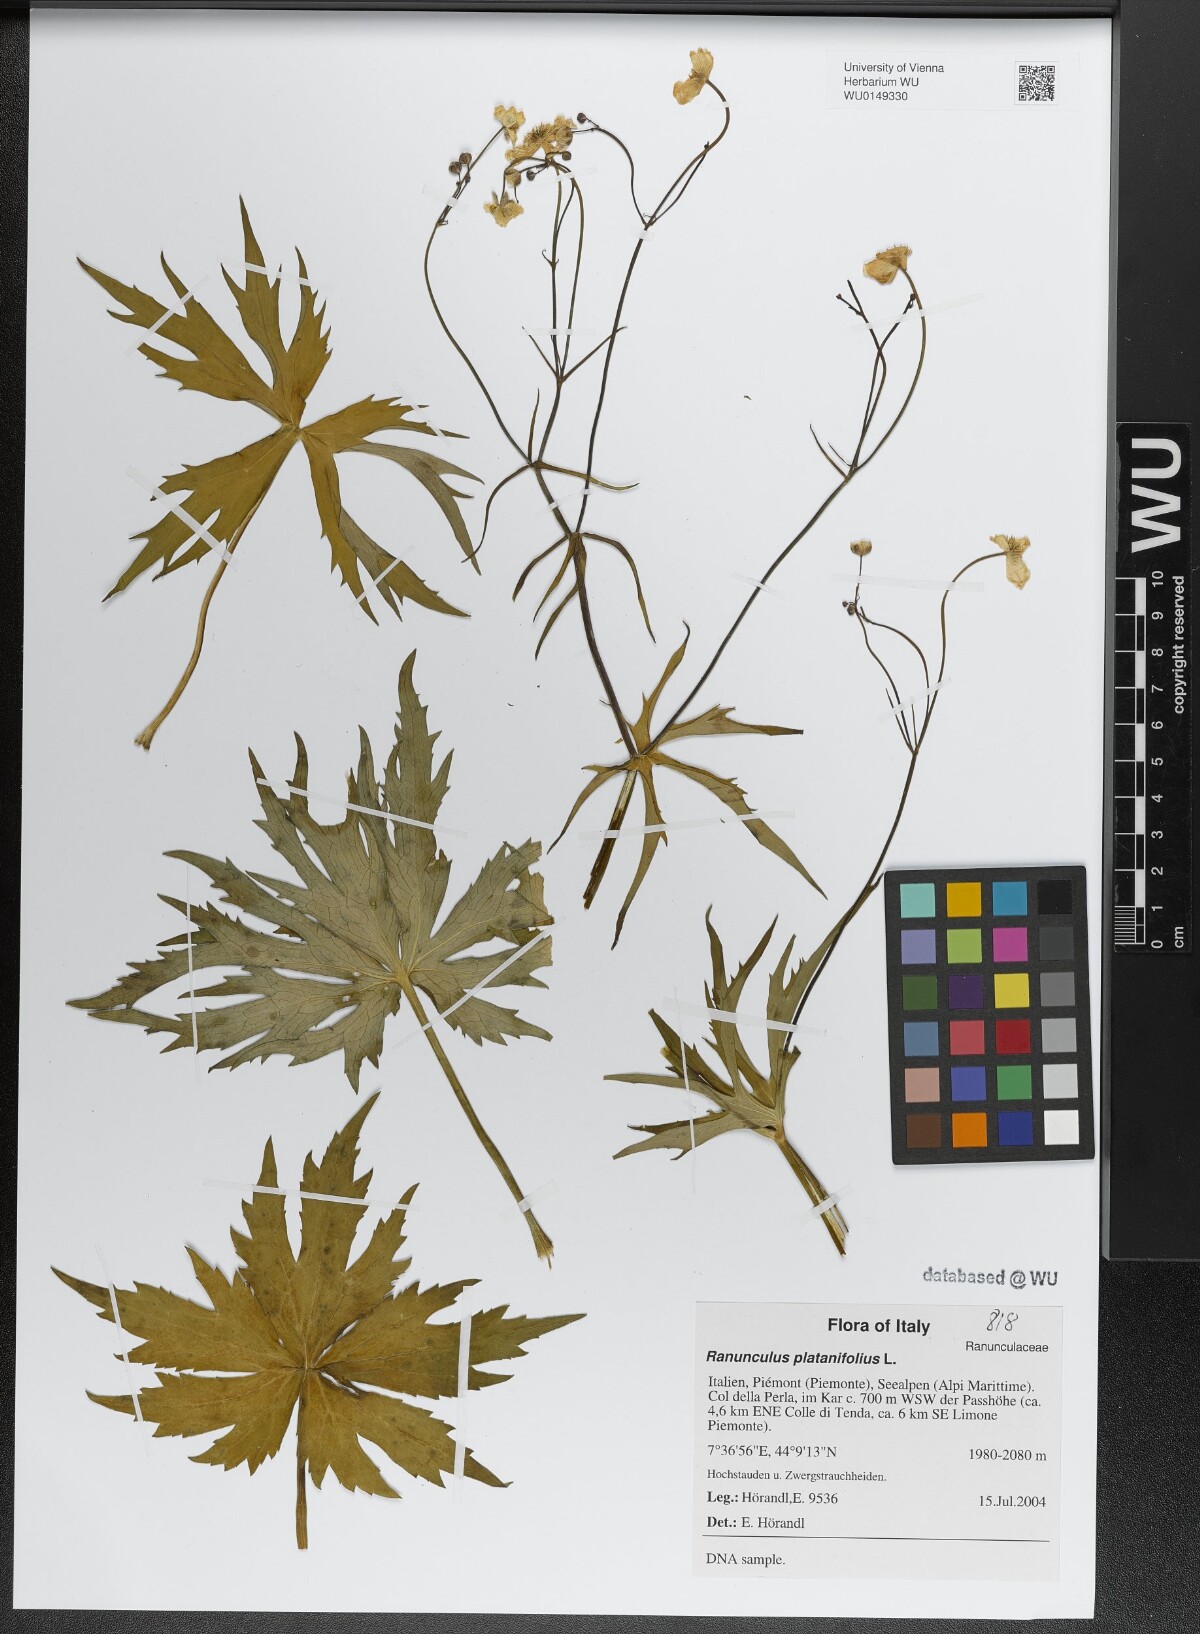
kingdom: Plantae
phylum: Tracheophyta
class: Magnoliopsida
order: Ranunculales
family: Ranunculaceae
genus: Ranunculus
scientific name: Ranunculus platanifolius
